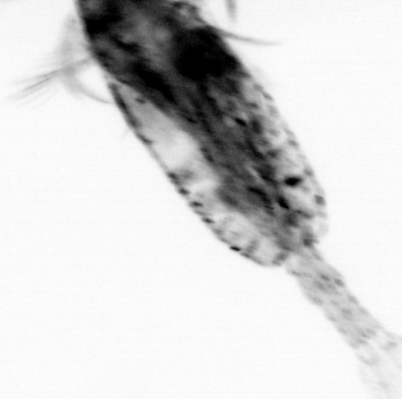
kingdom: Animalia
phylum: Arthropoda
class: Copepoda
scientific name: Copepoda
